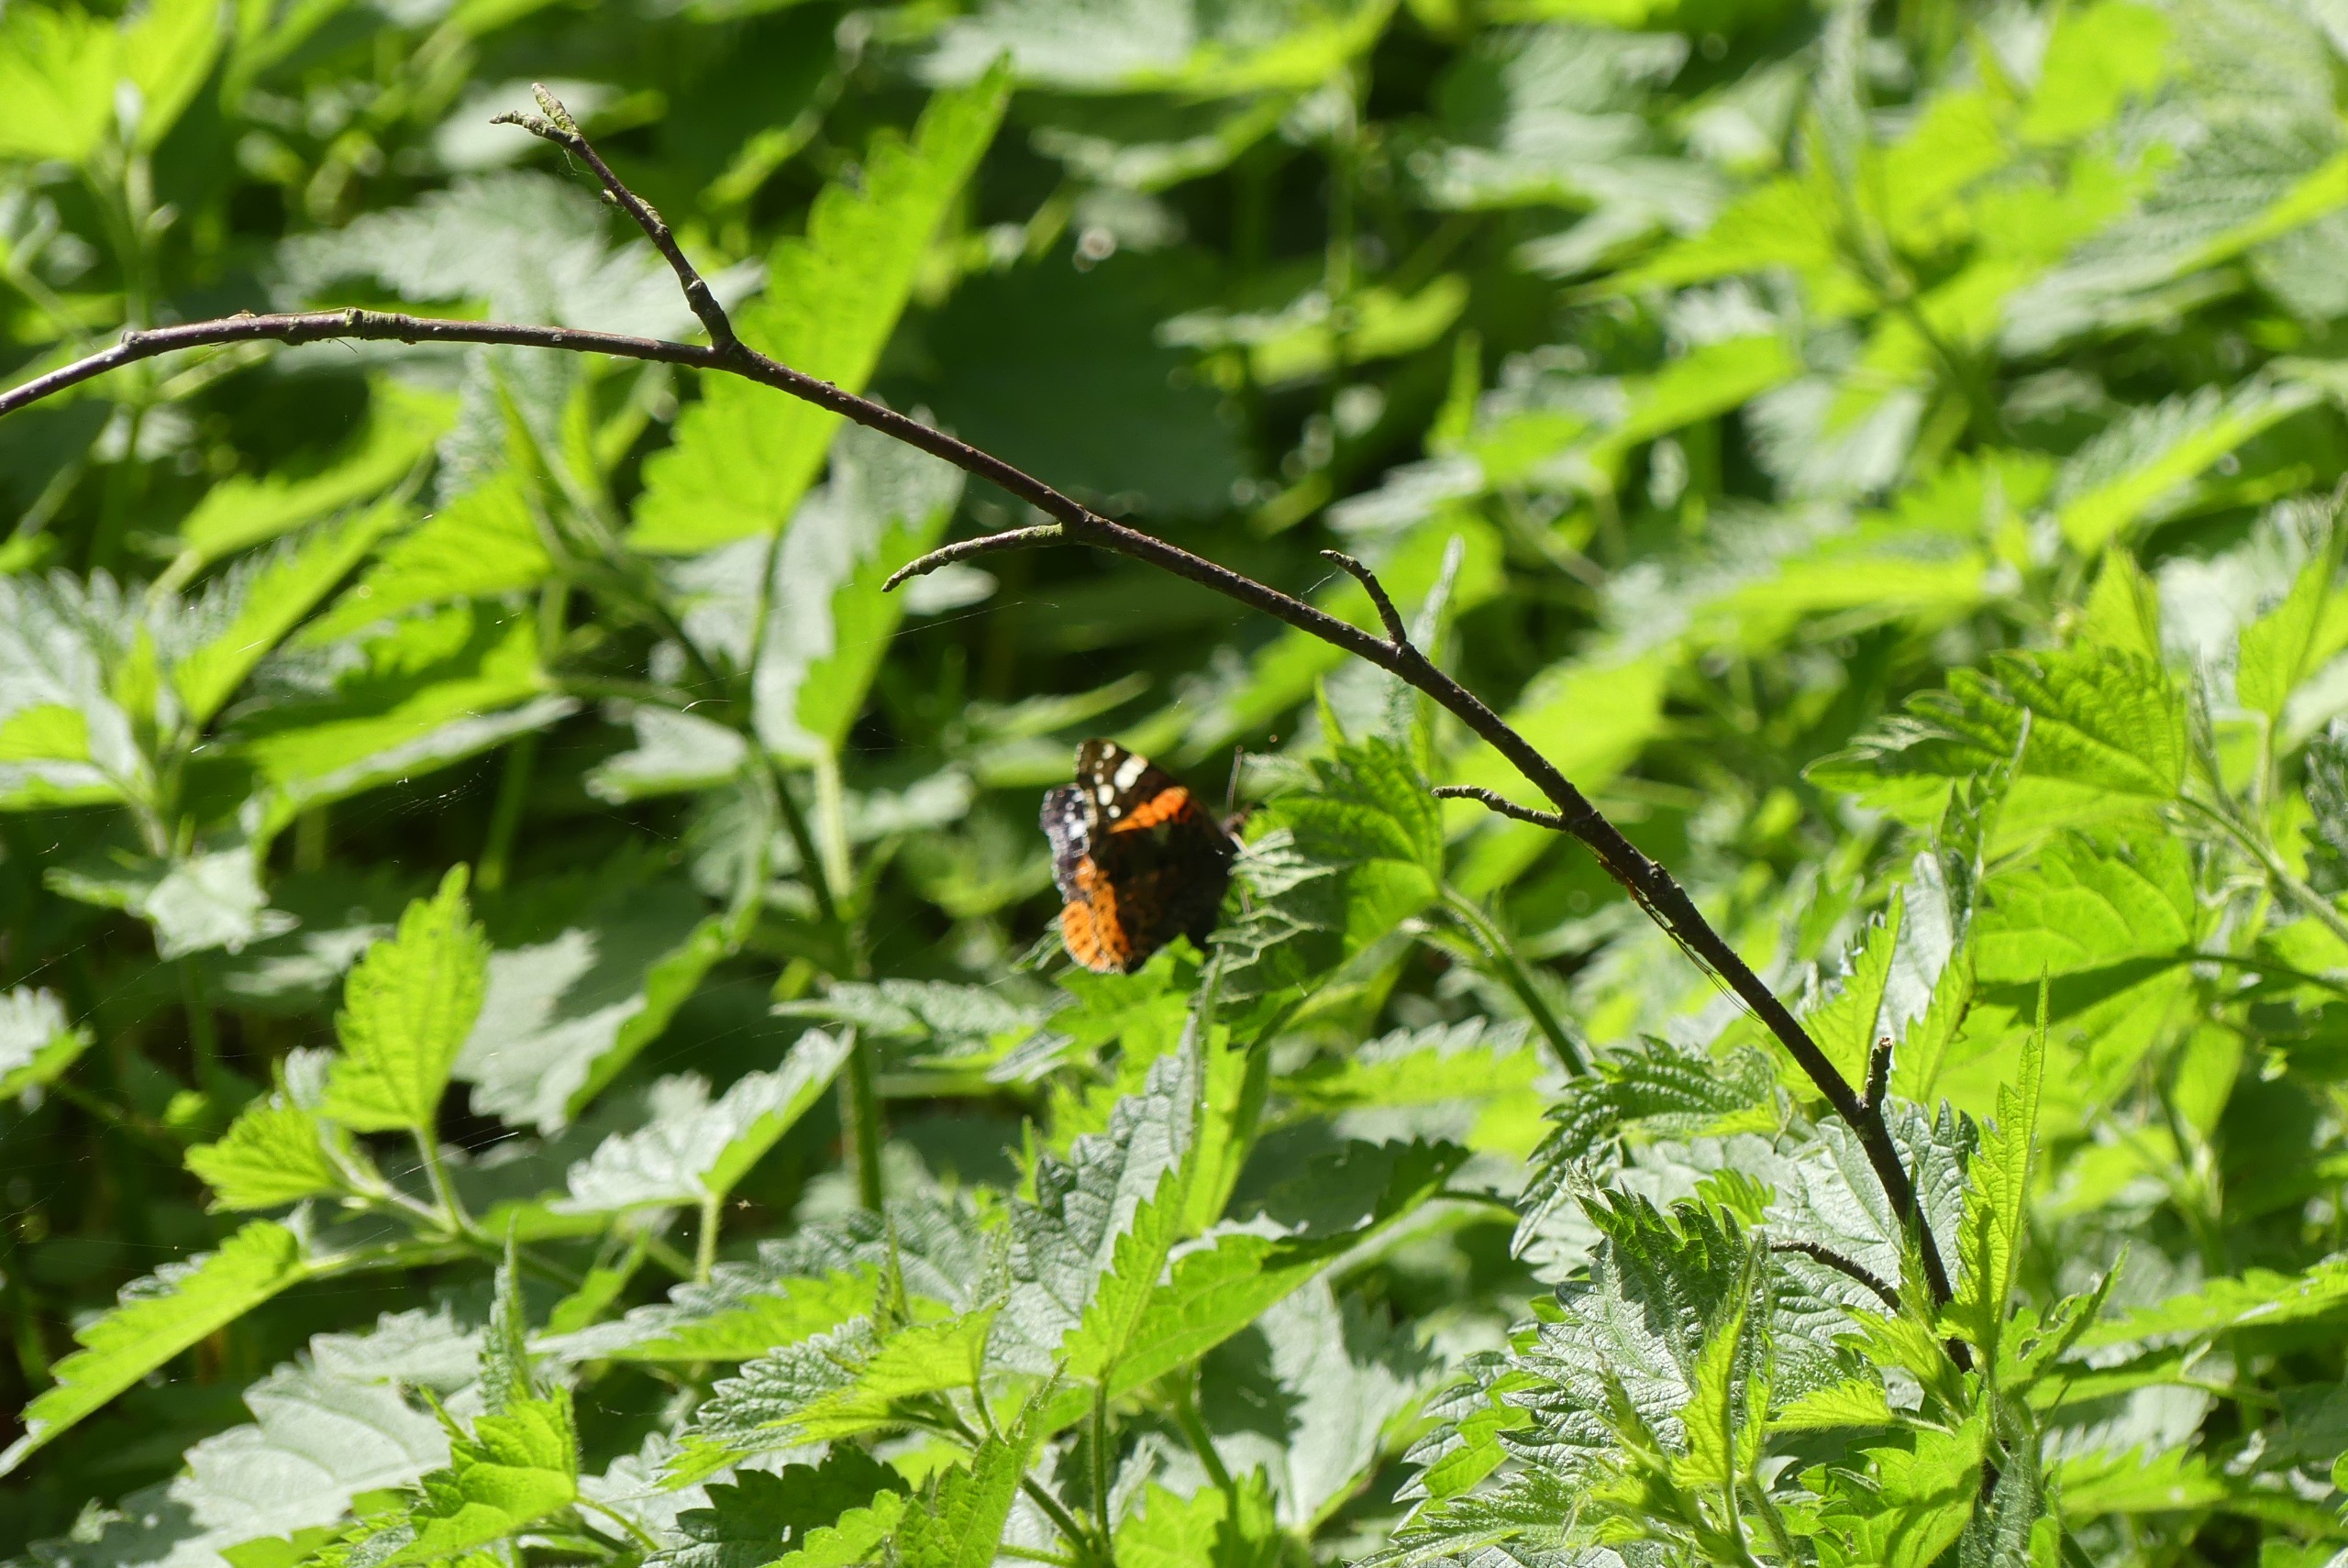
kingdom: Animalia
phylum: Arthropoda
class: Insecta
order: Lepidoptera
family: Nymphalidae
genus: Vanessa
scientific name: Vanessa atalanta
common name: Admiral
